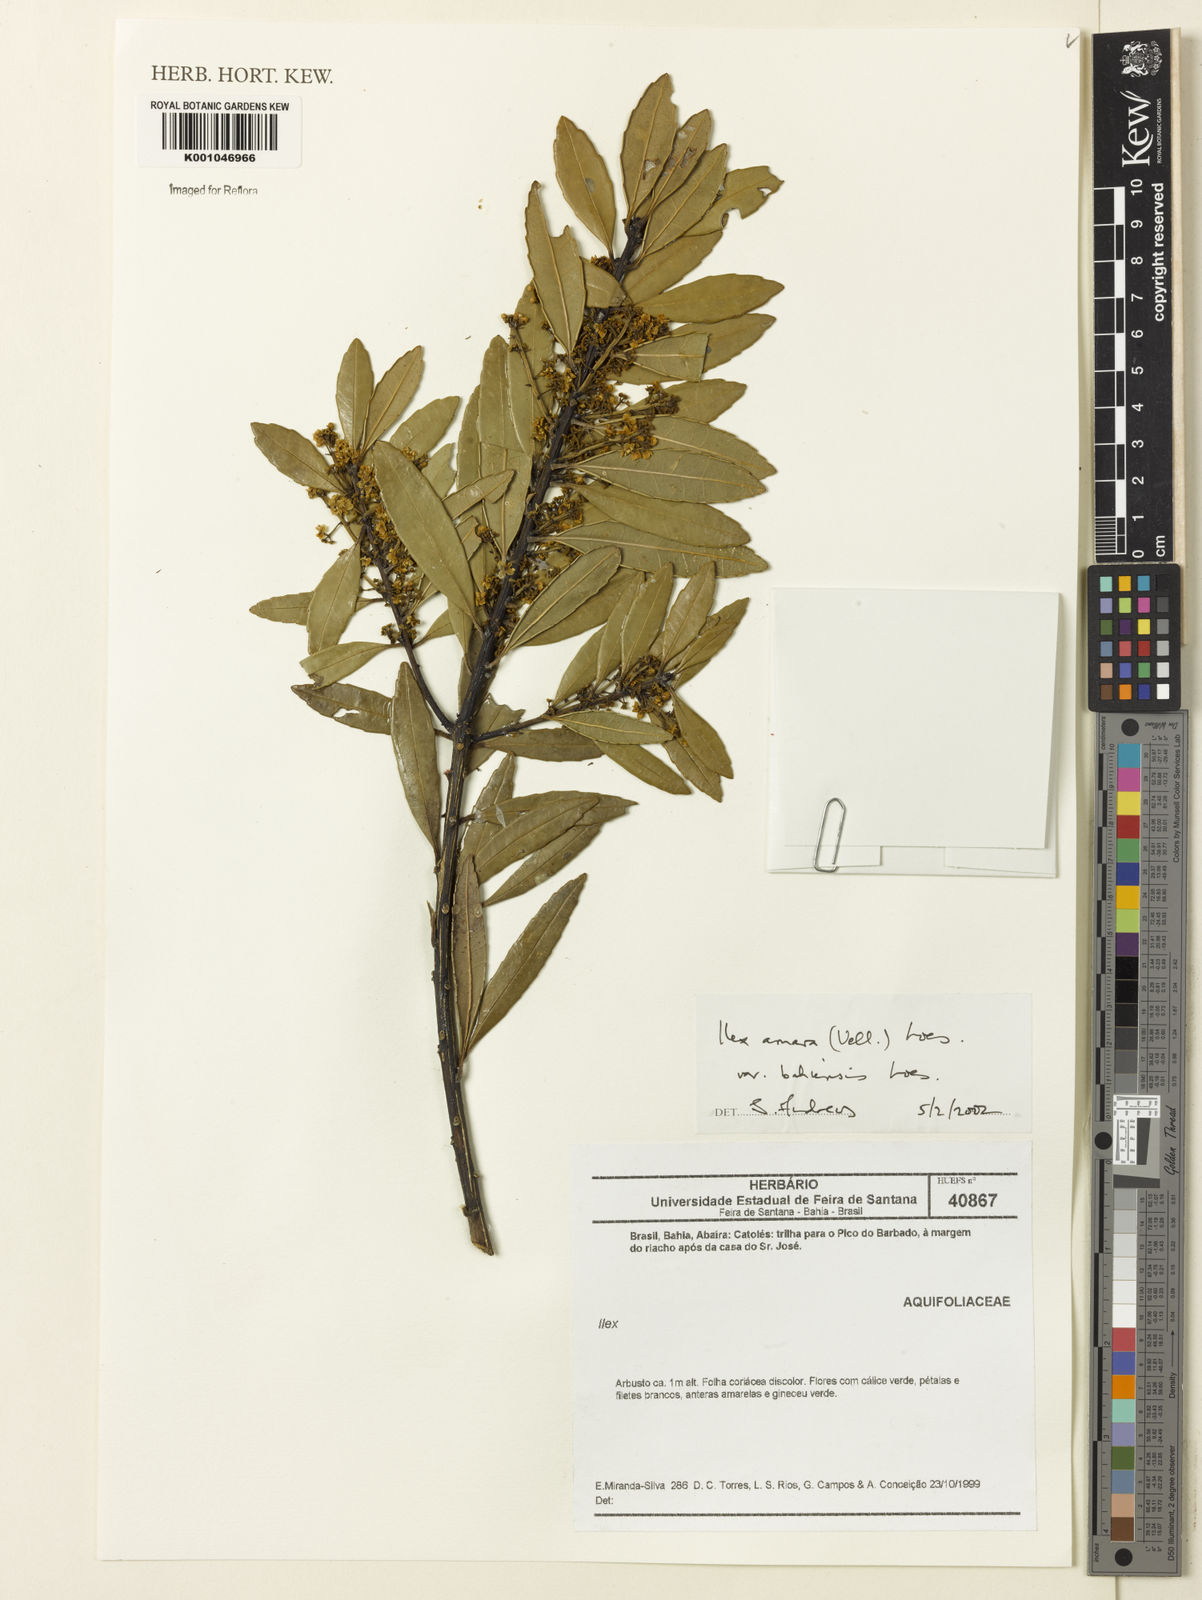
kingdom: Plantae
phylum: Tracheophyta
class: Magnoliopsida
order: Aquifoliales
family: Aquifoliaceae
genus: Ilex
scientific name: Ilex dumosa
